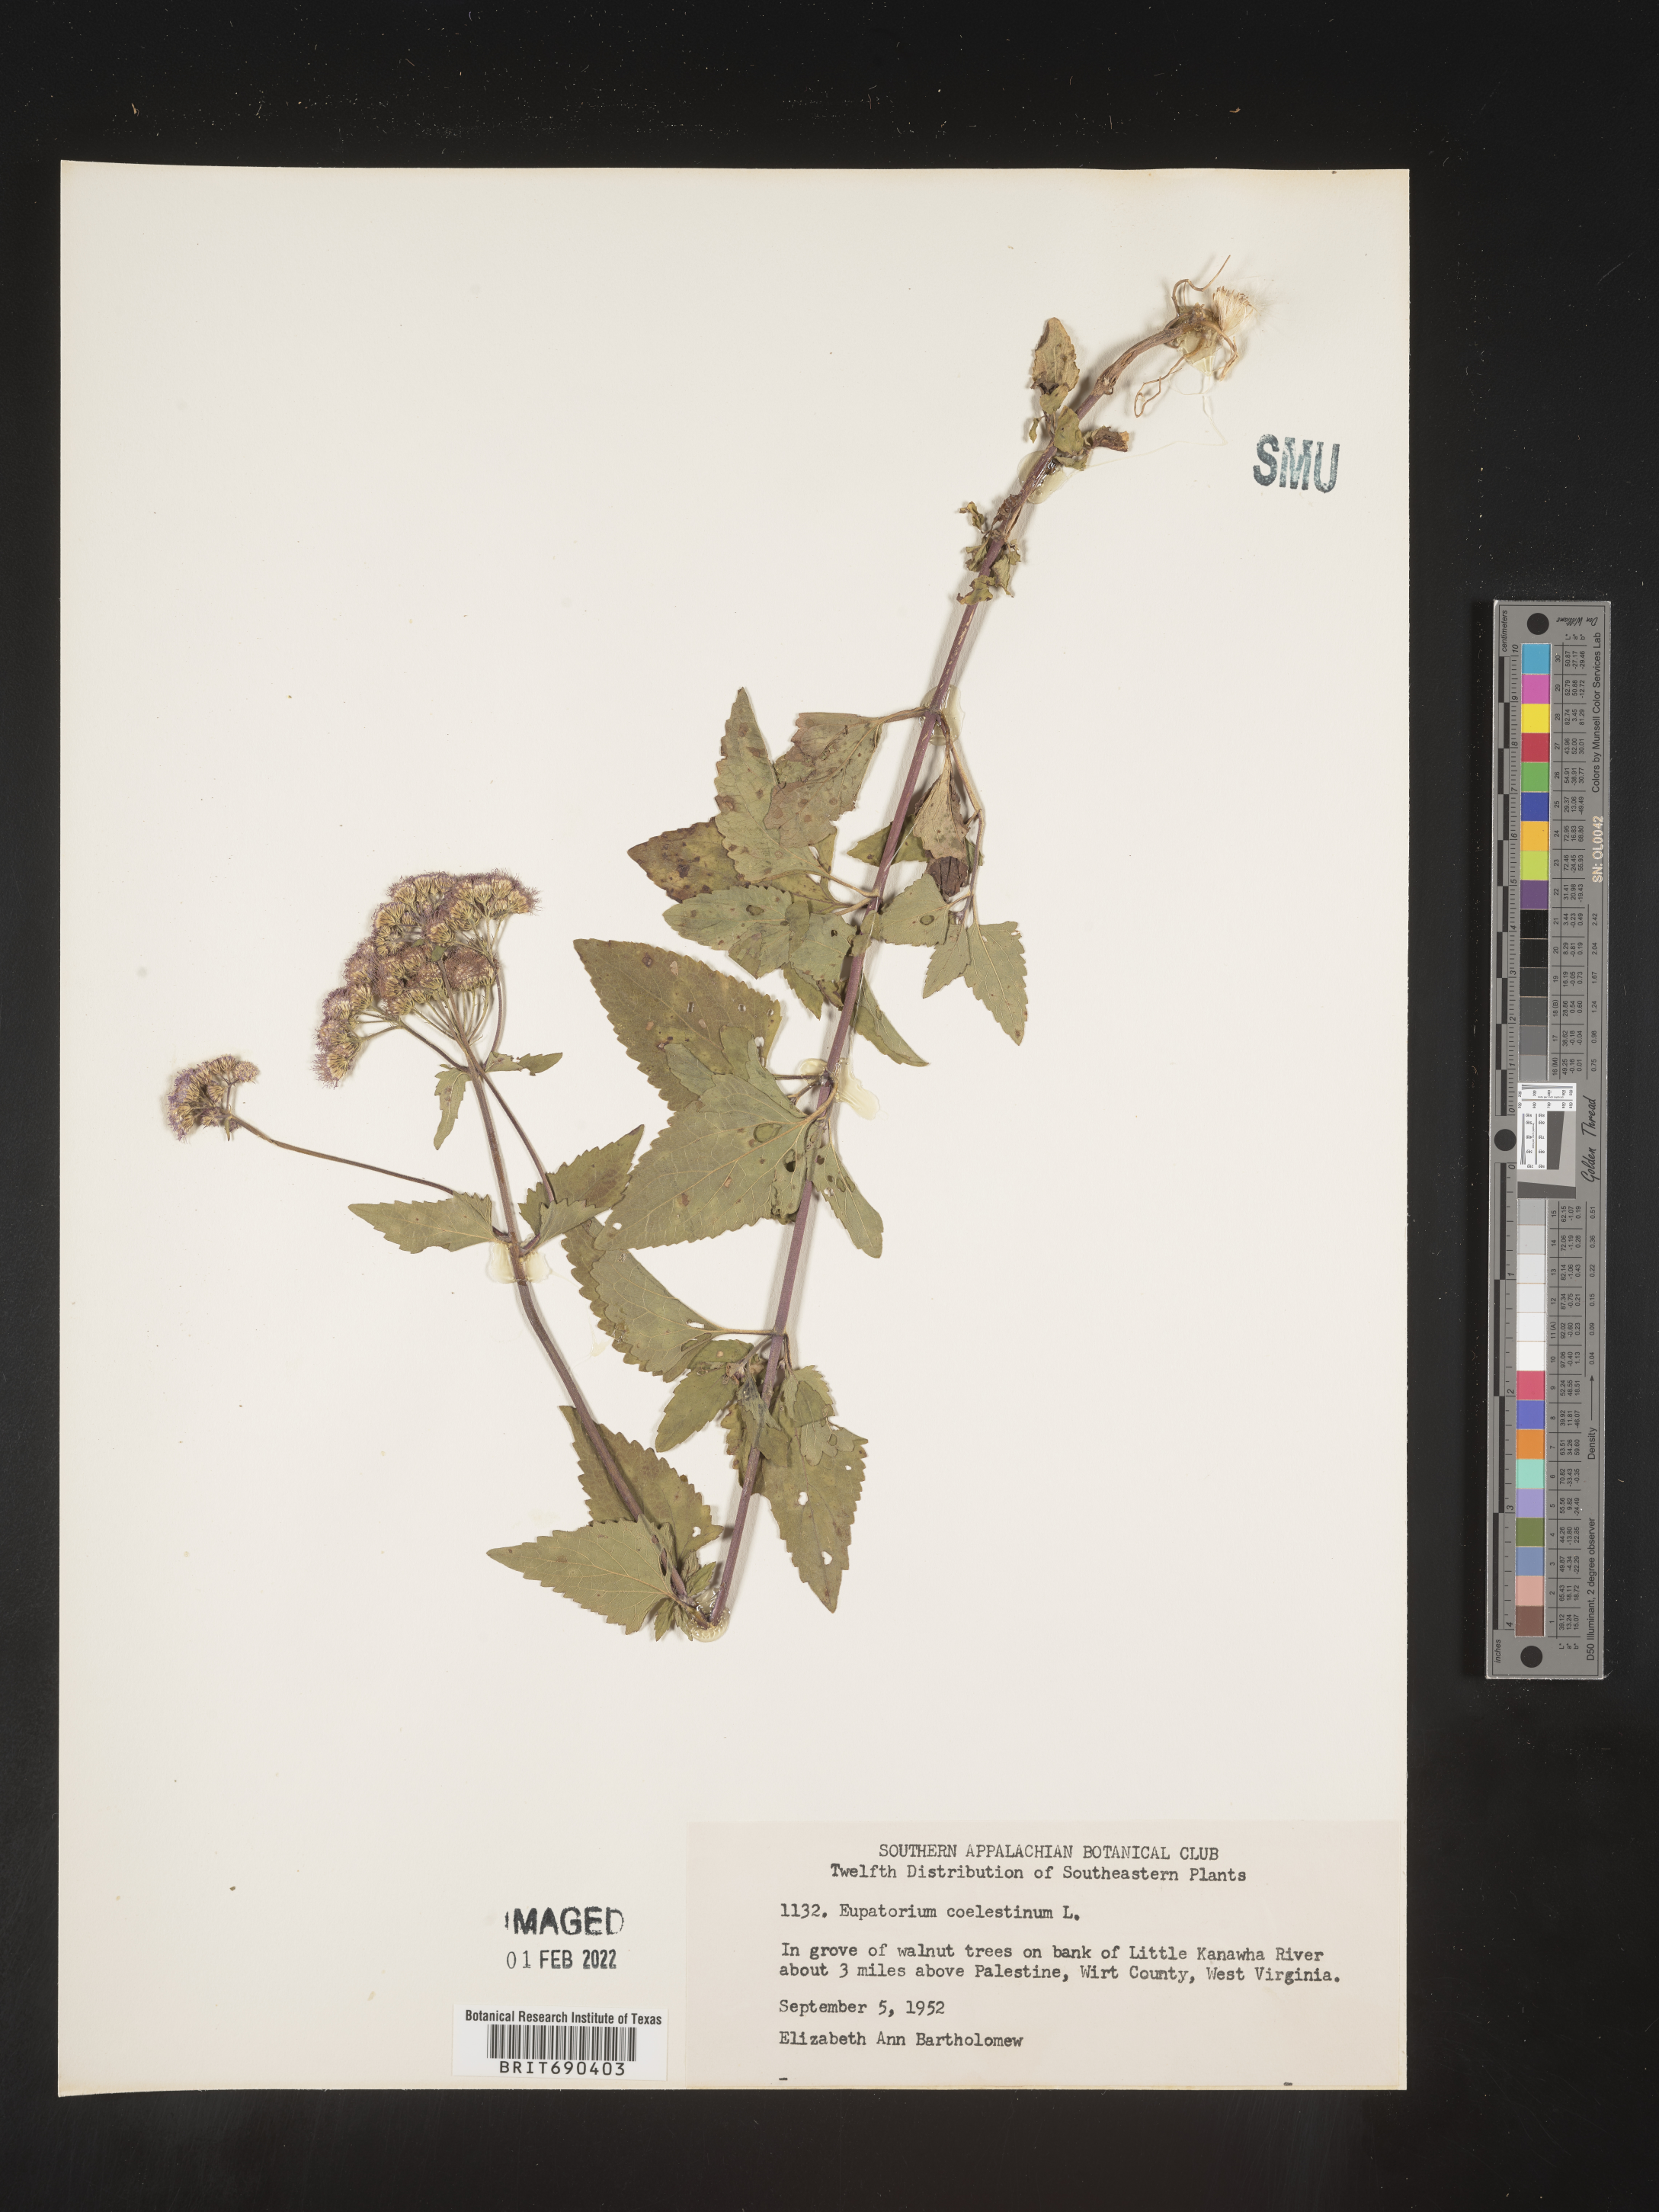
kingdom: Plantae
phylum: Tracheophyta
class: Magnoliopsida
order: Asterales
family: Asteraceae
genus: Conoclinium
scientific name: Conoclinium coelestinum
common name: Blue mistflower
